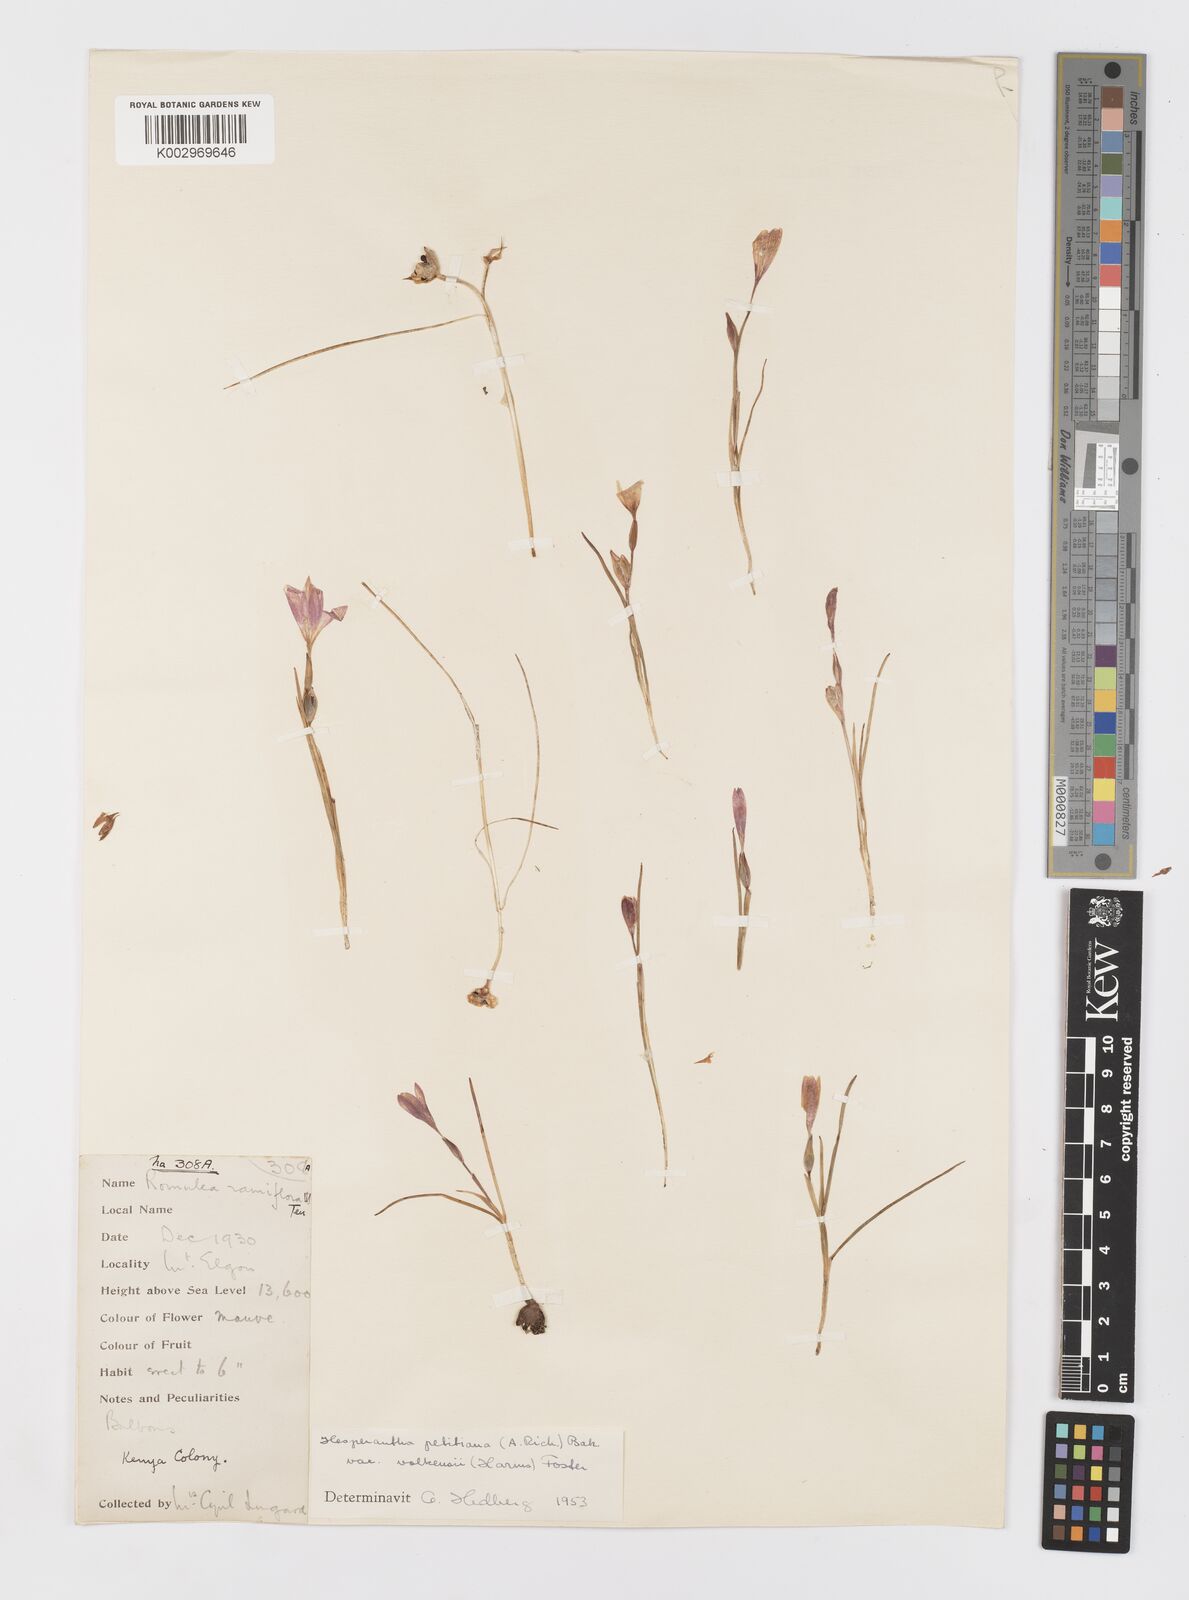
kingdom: Plantae
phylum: Tracheophyta
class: Liliopsida
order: Asparagales
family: Iridaceae
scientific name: Iridaceae
